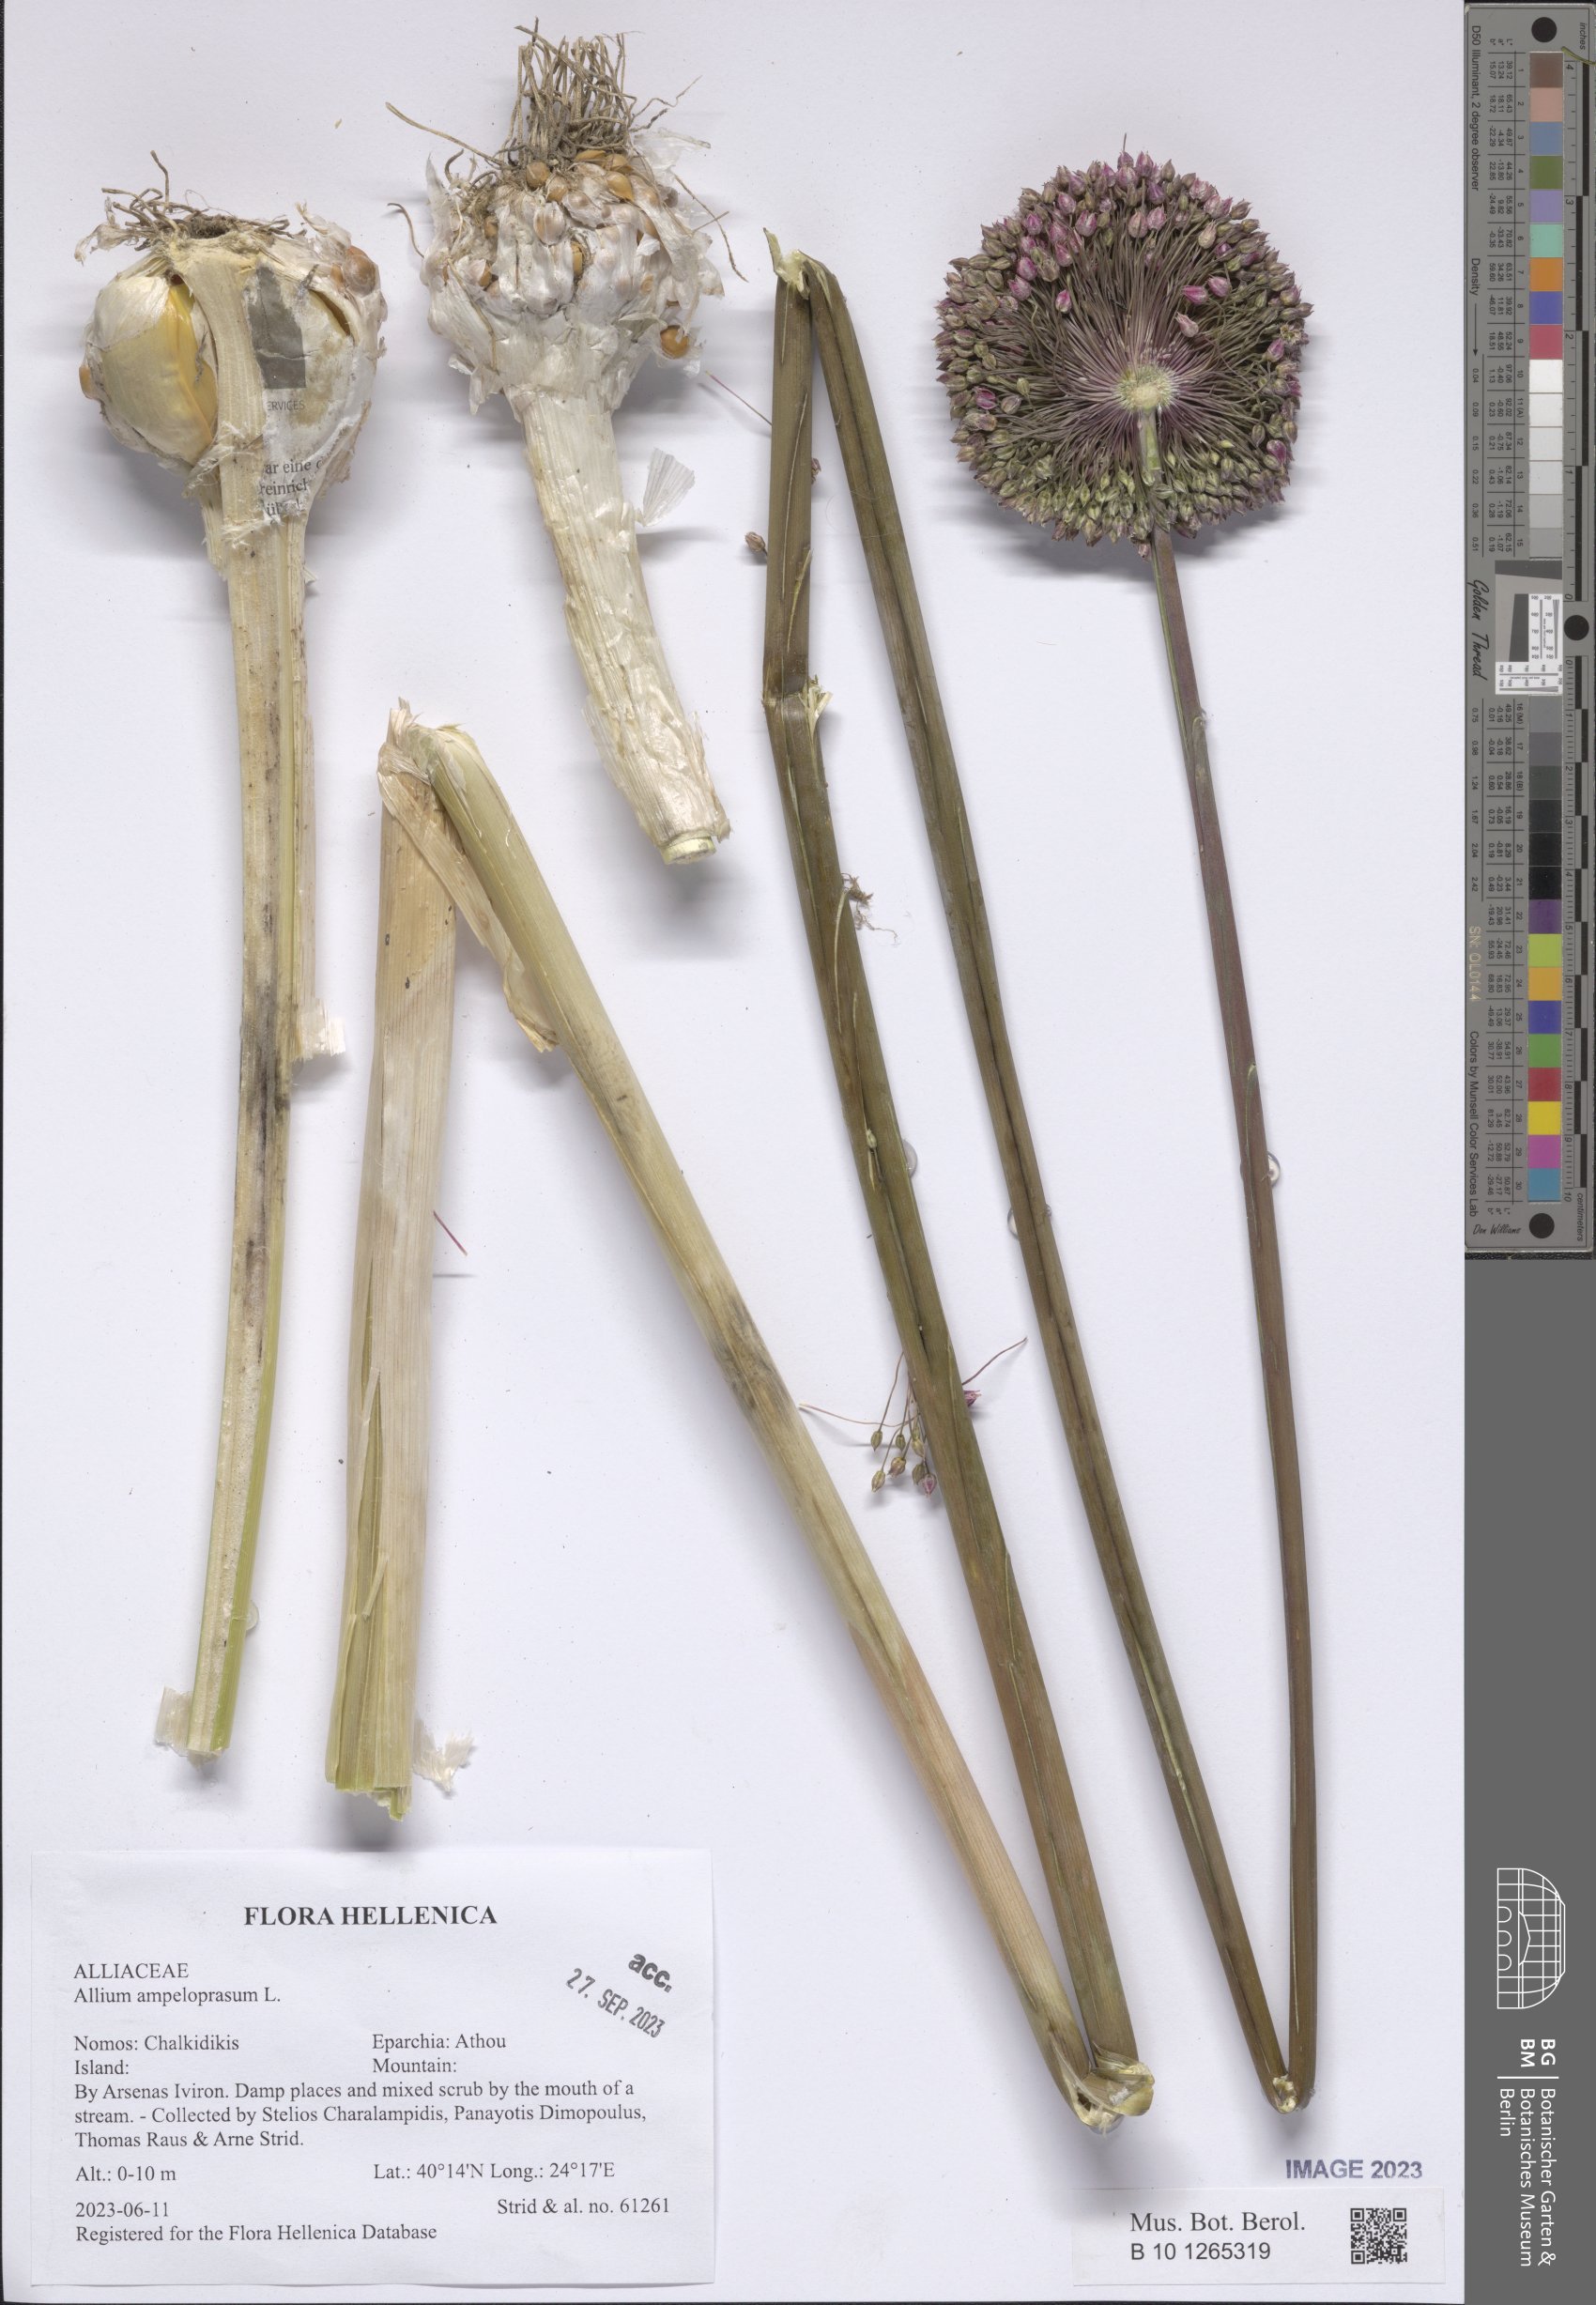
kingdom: Plantae
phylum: Tracheophyta
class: Liliopsida
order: Asparagales
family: Amaryllidaceae
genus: Allium
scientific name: Allium ampeloprasum
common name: Wild leek
